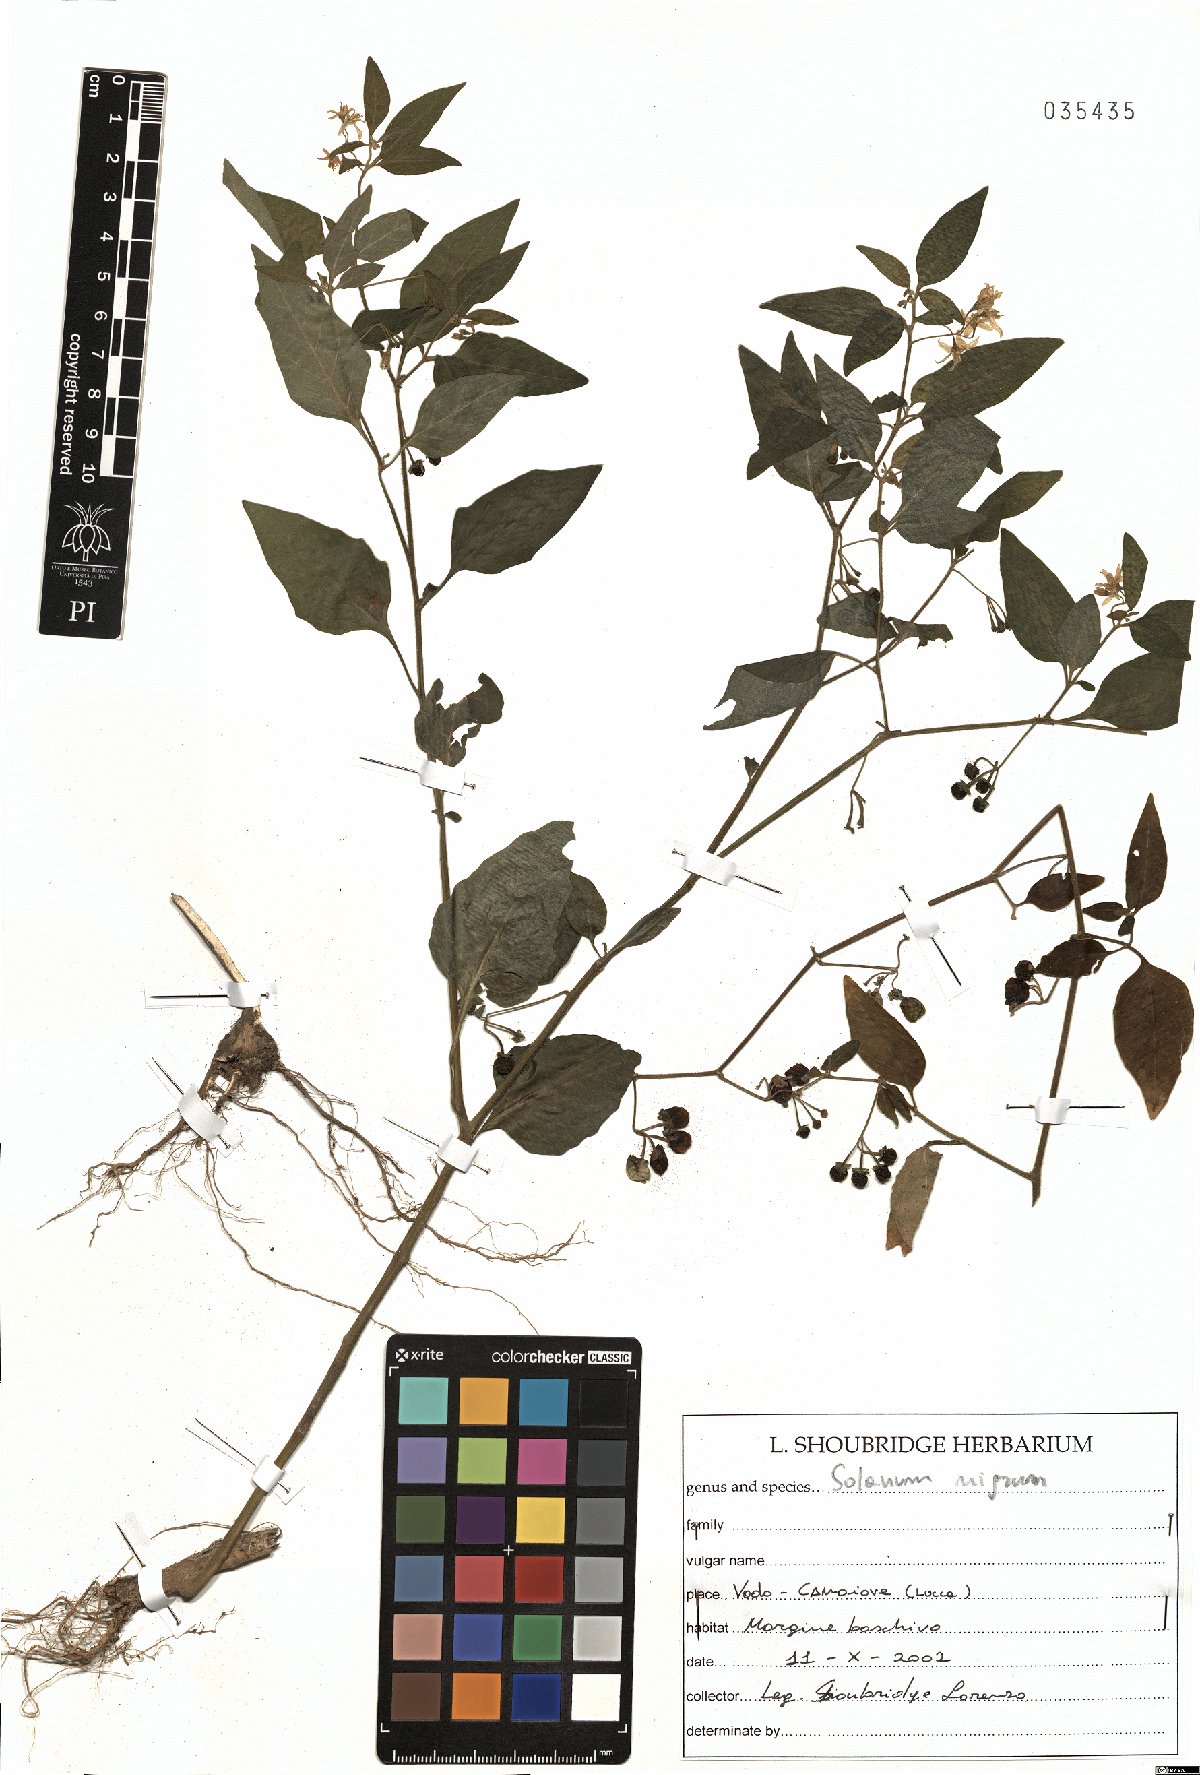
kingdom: Plantae
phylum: Tracheophyta
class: Magnoliopsida
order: Solanales
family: Solanaceae
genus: Solanum
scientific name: Solanum nigrum
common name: Black nightshade
